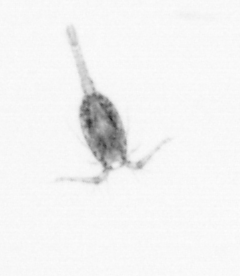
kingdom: Animalia
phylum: Arthropoda
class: Copepoda
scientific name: Copepoda
